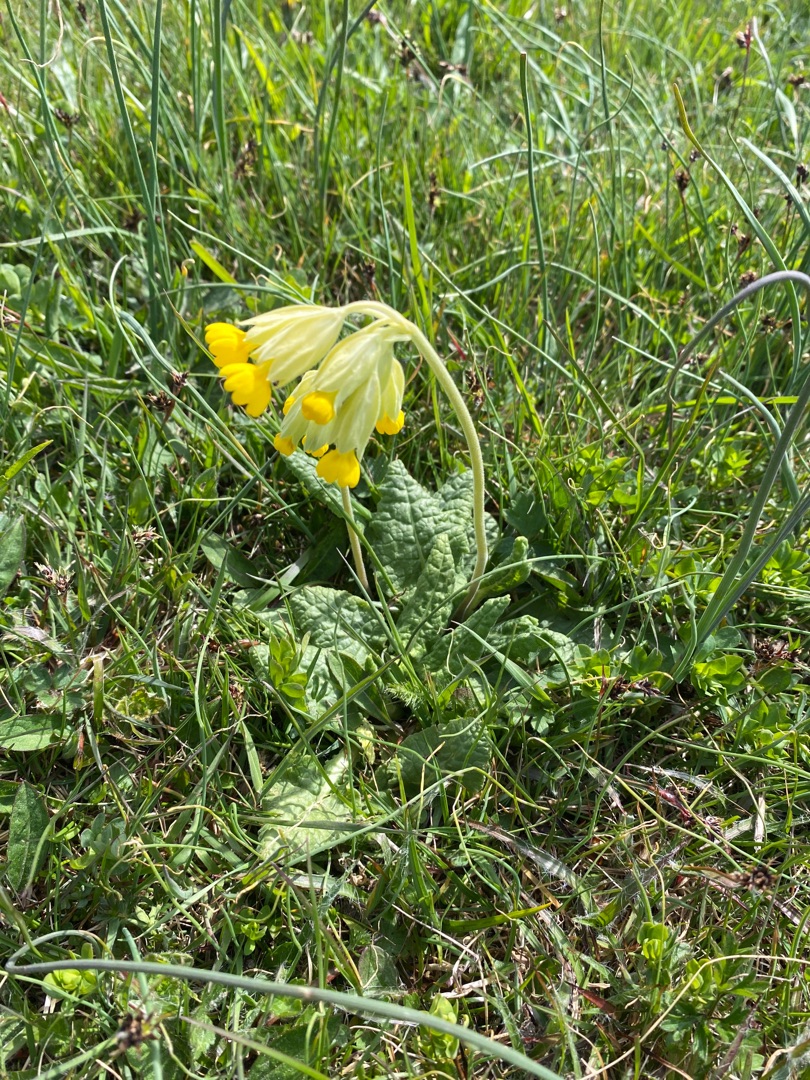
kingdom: Plantae
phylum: Tracheophyta
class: Magnoliopsida
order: Ericales
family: Primulaceae
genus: Primula
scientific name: Primula veris
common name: Hulkravet kodriver
